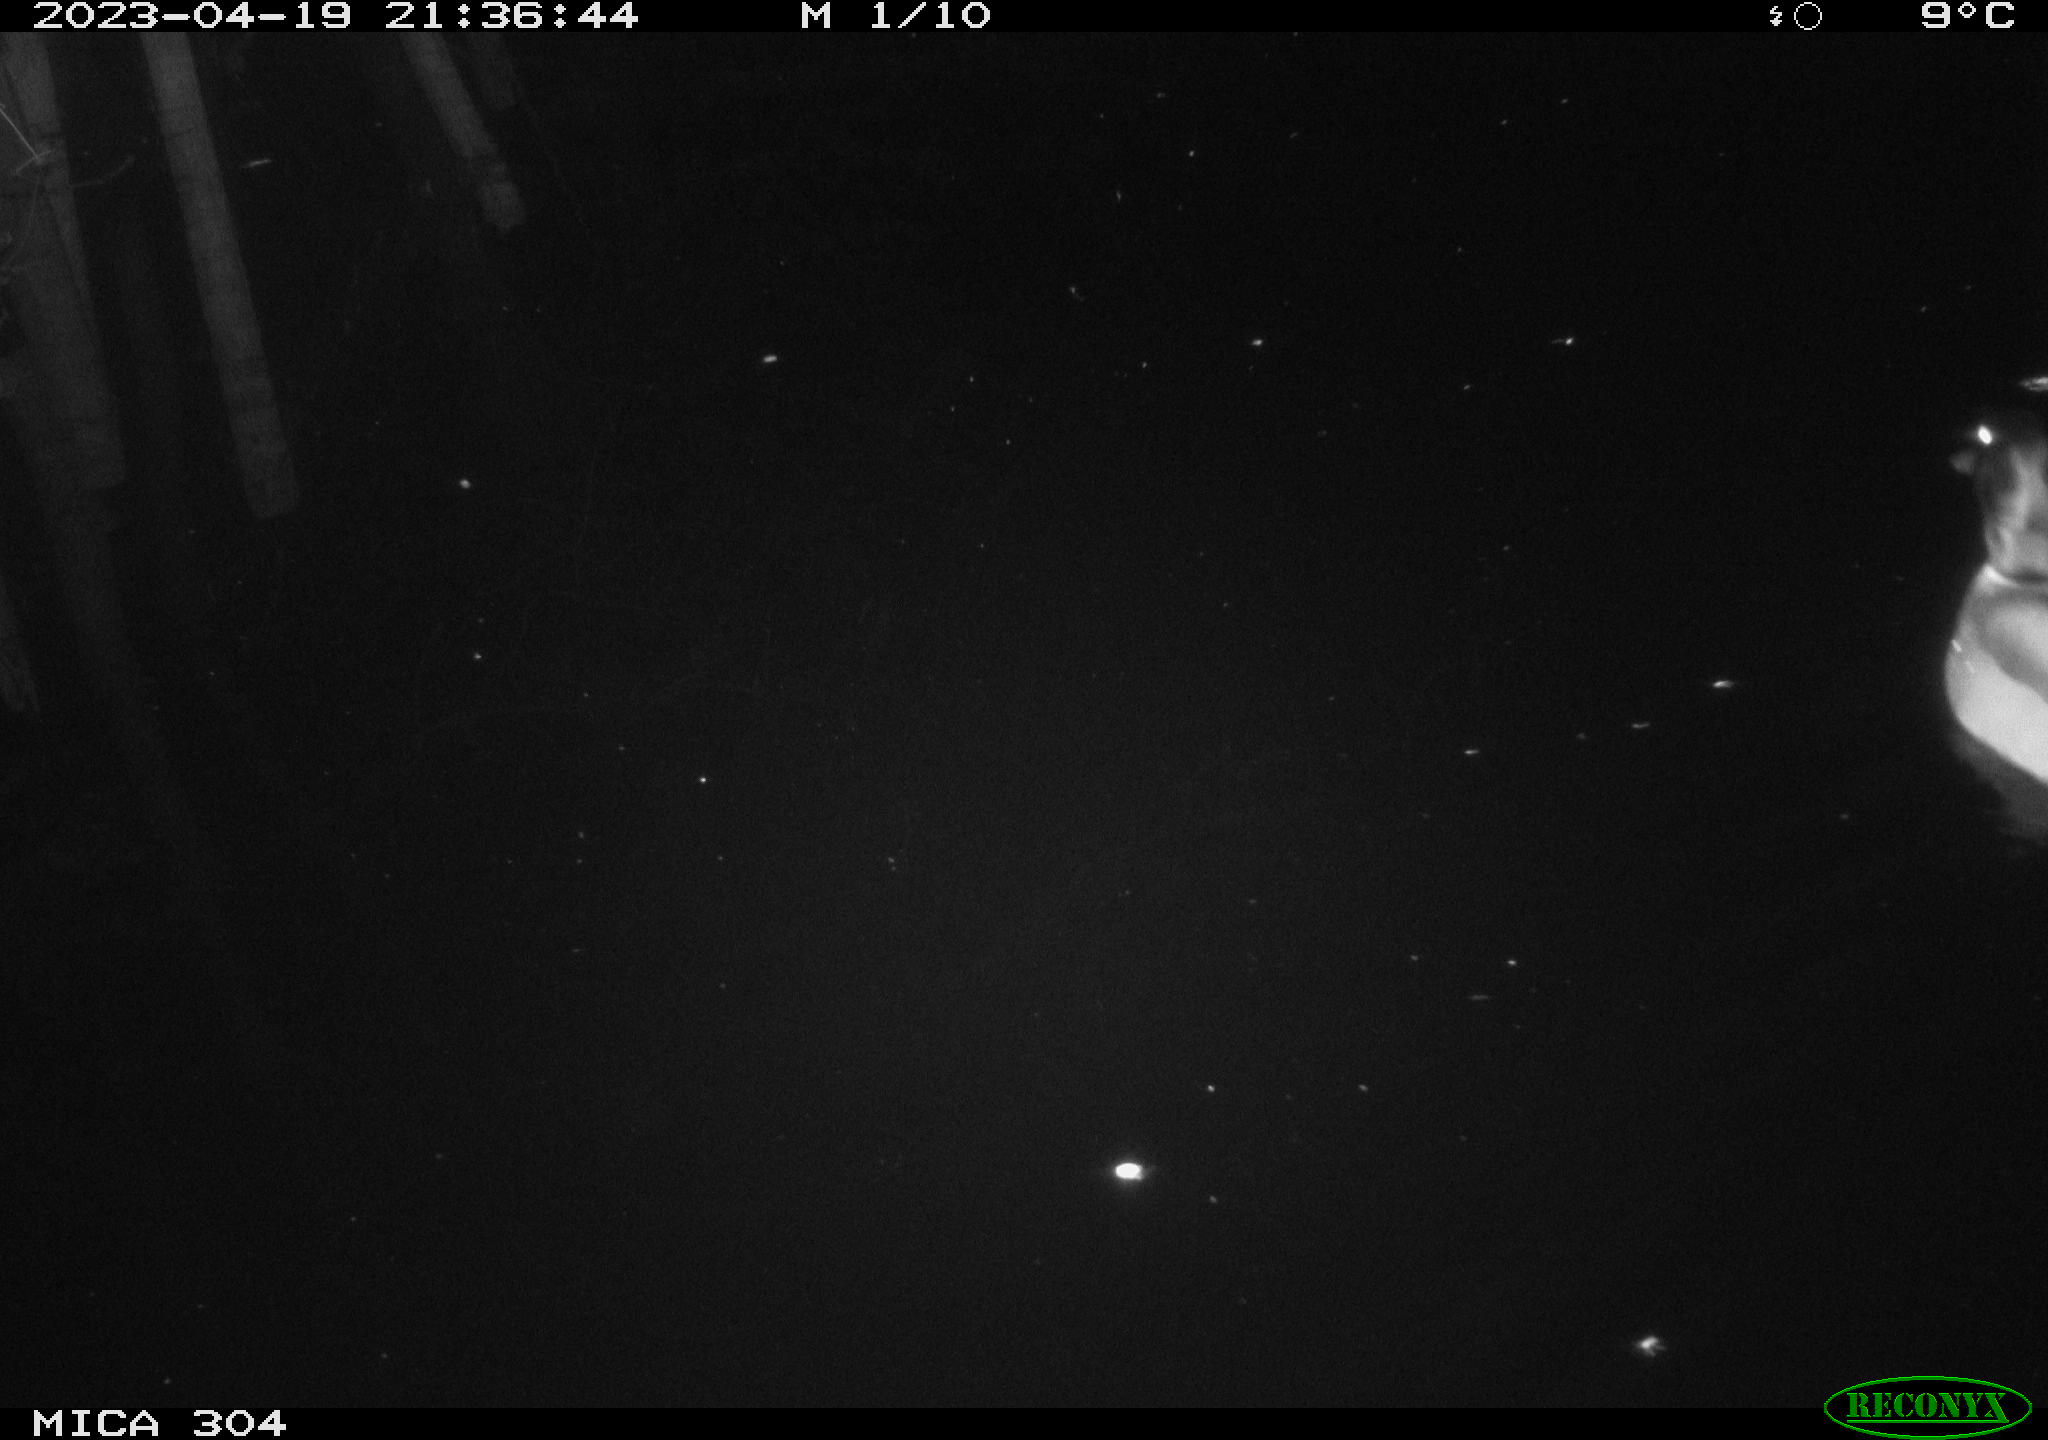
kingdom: Animalia
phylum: Chordata
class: Aves
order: Anseriformes
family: Anatidae
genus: Anas
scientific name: Anas
